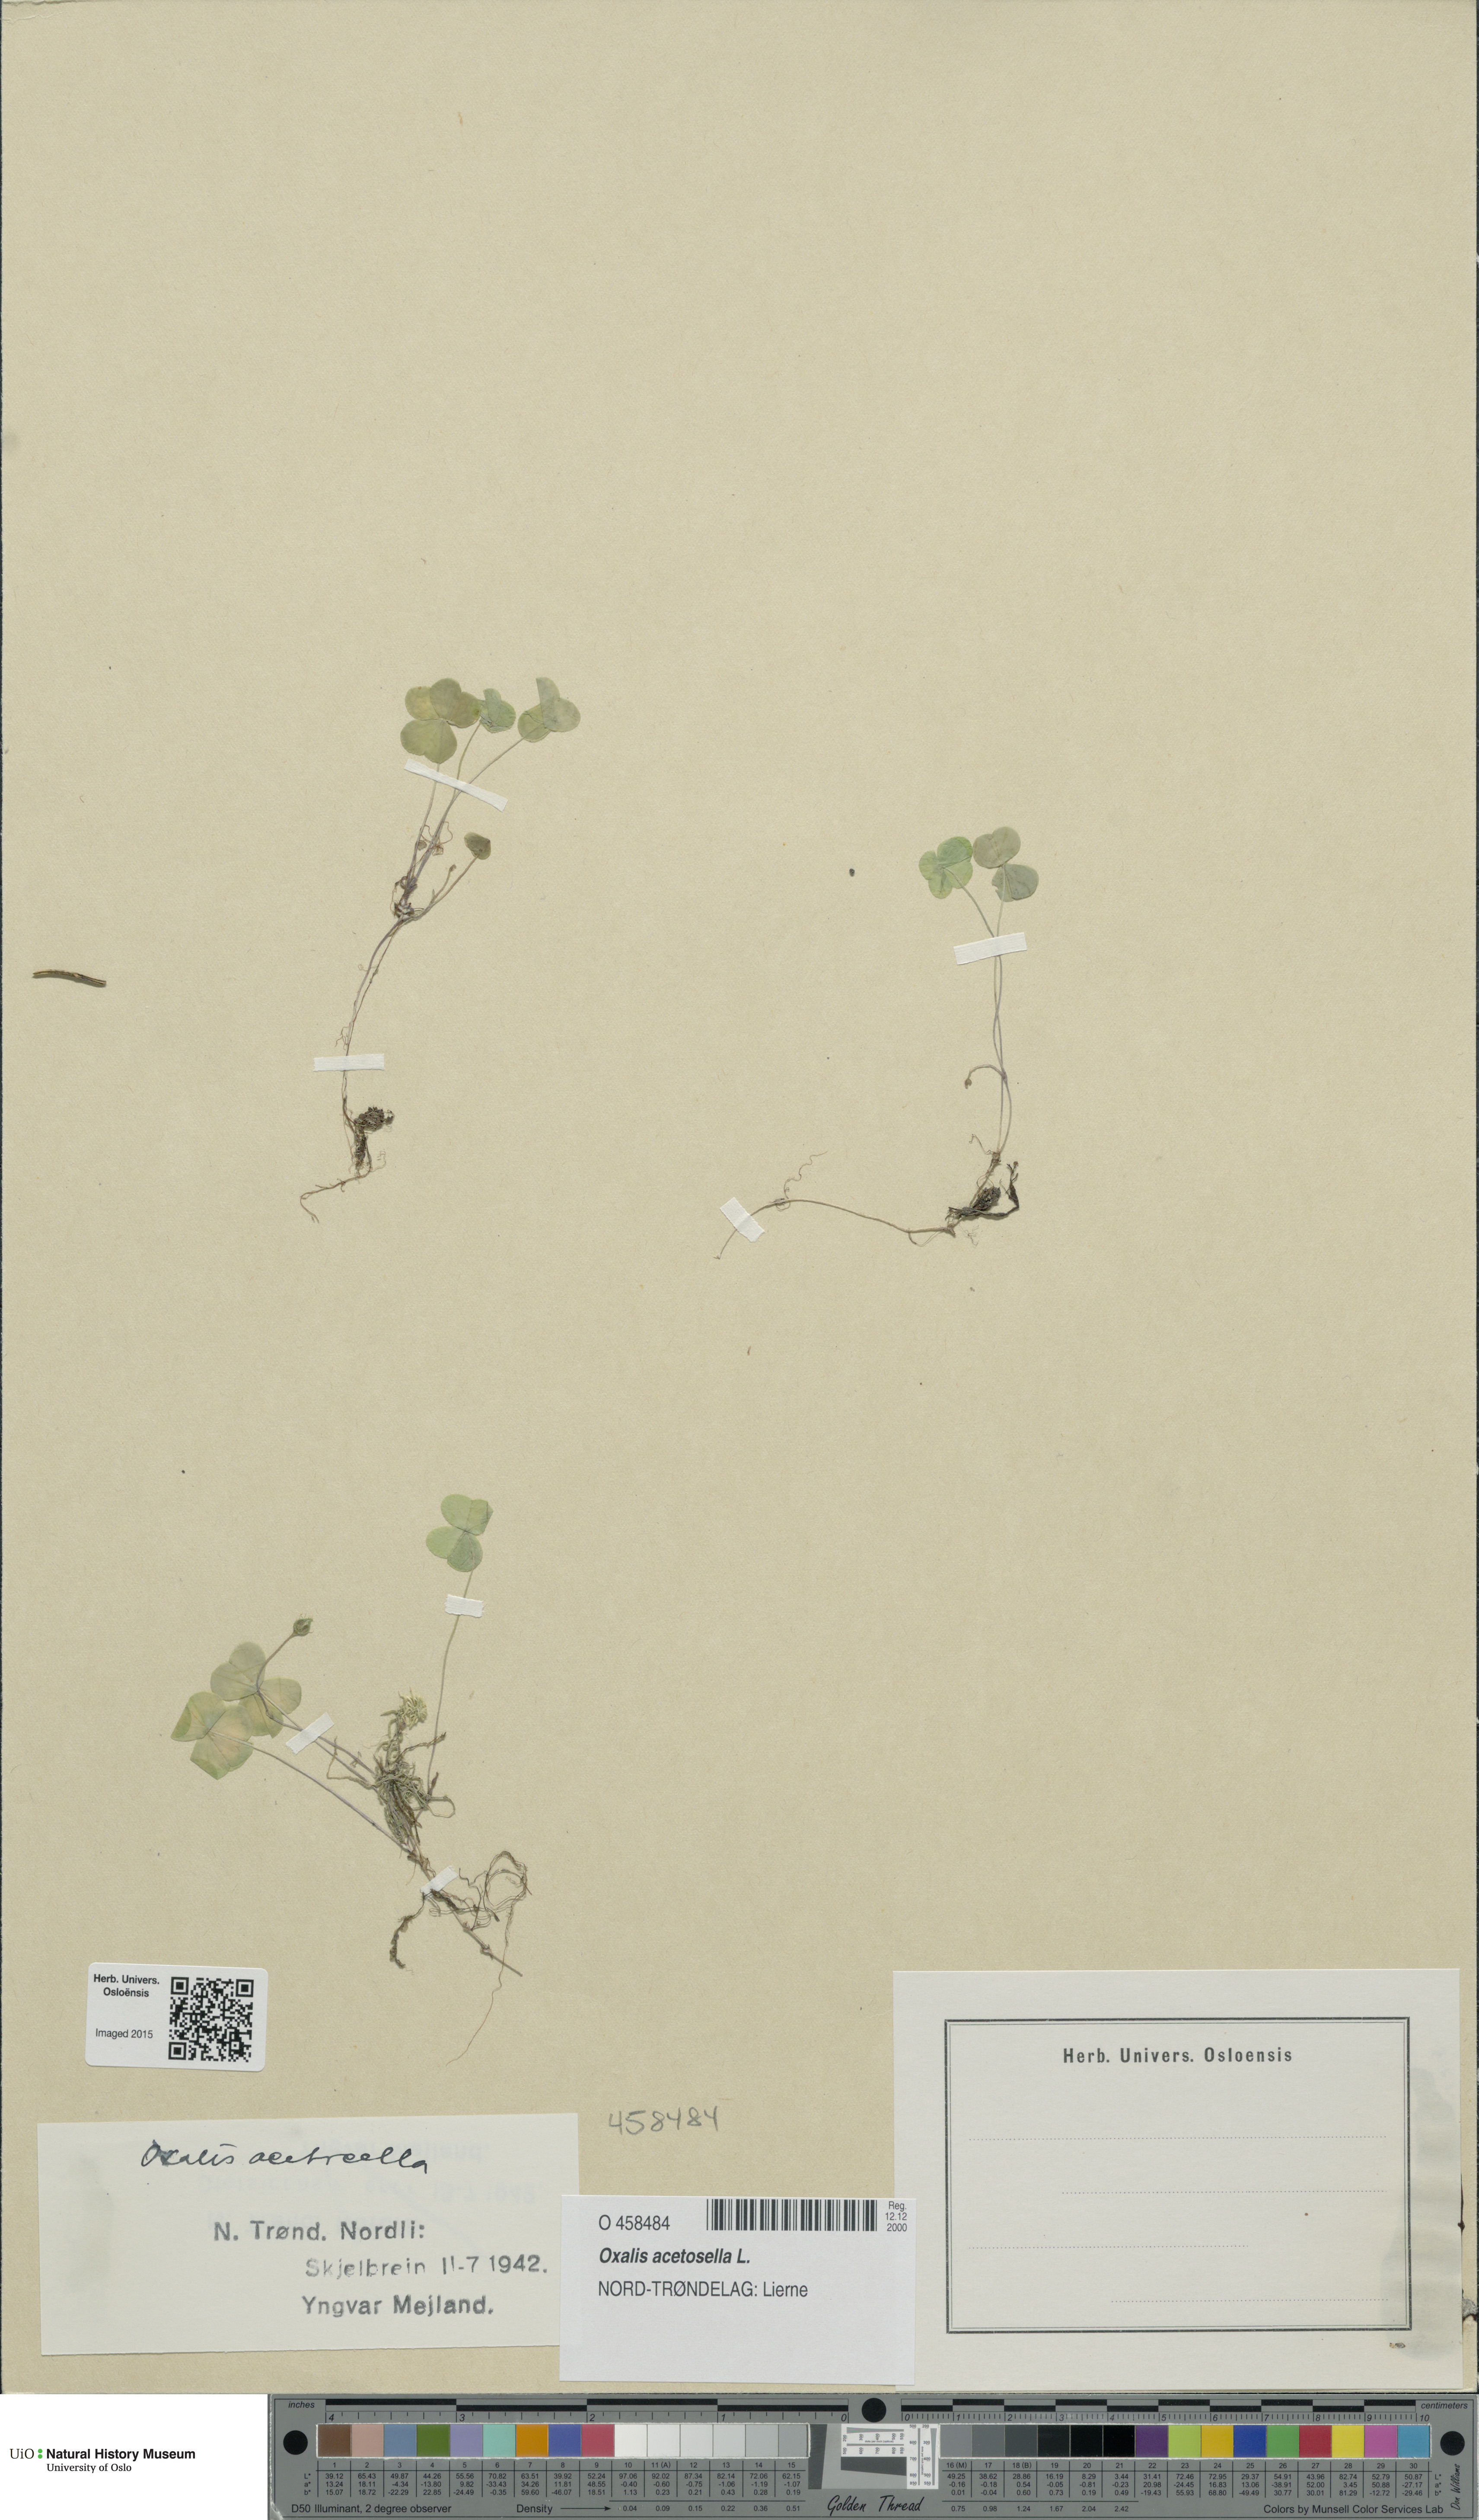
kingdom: Plantae
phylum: Tracheophyta
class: Magnoliopsida
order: Oxalidales
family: Oxalidaceae
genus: Oxalis
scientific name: Oxalis acetosella
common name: Wood-sorrel
